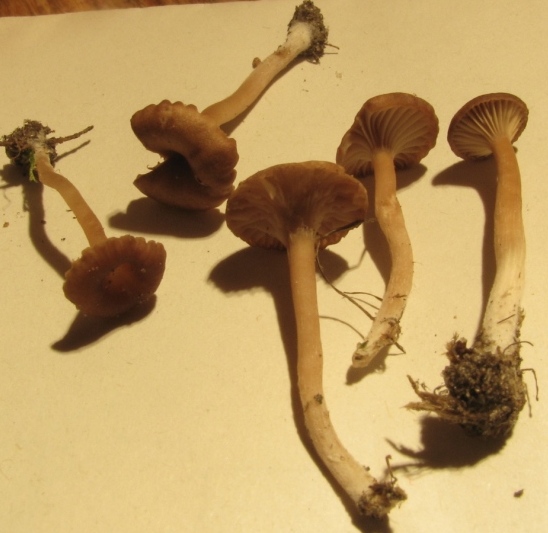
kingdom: Fungi
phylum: Basidiomycota
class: Agaricomycetes
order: Agaricales
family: Tricholomataceae
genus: Omphalina
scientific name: Omphalina subhepatica
